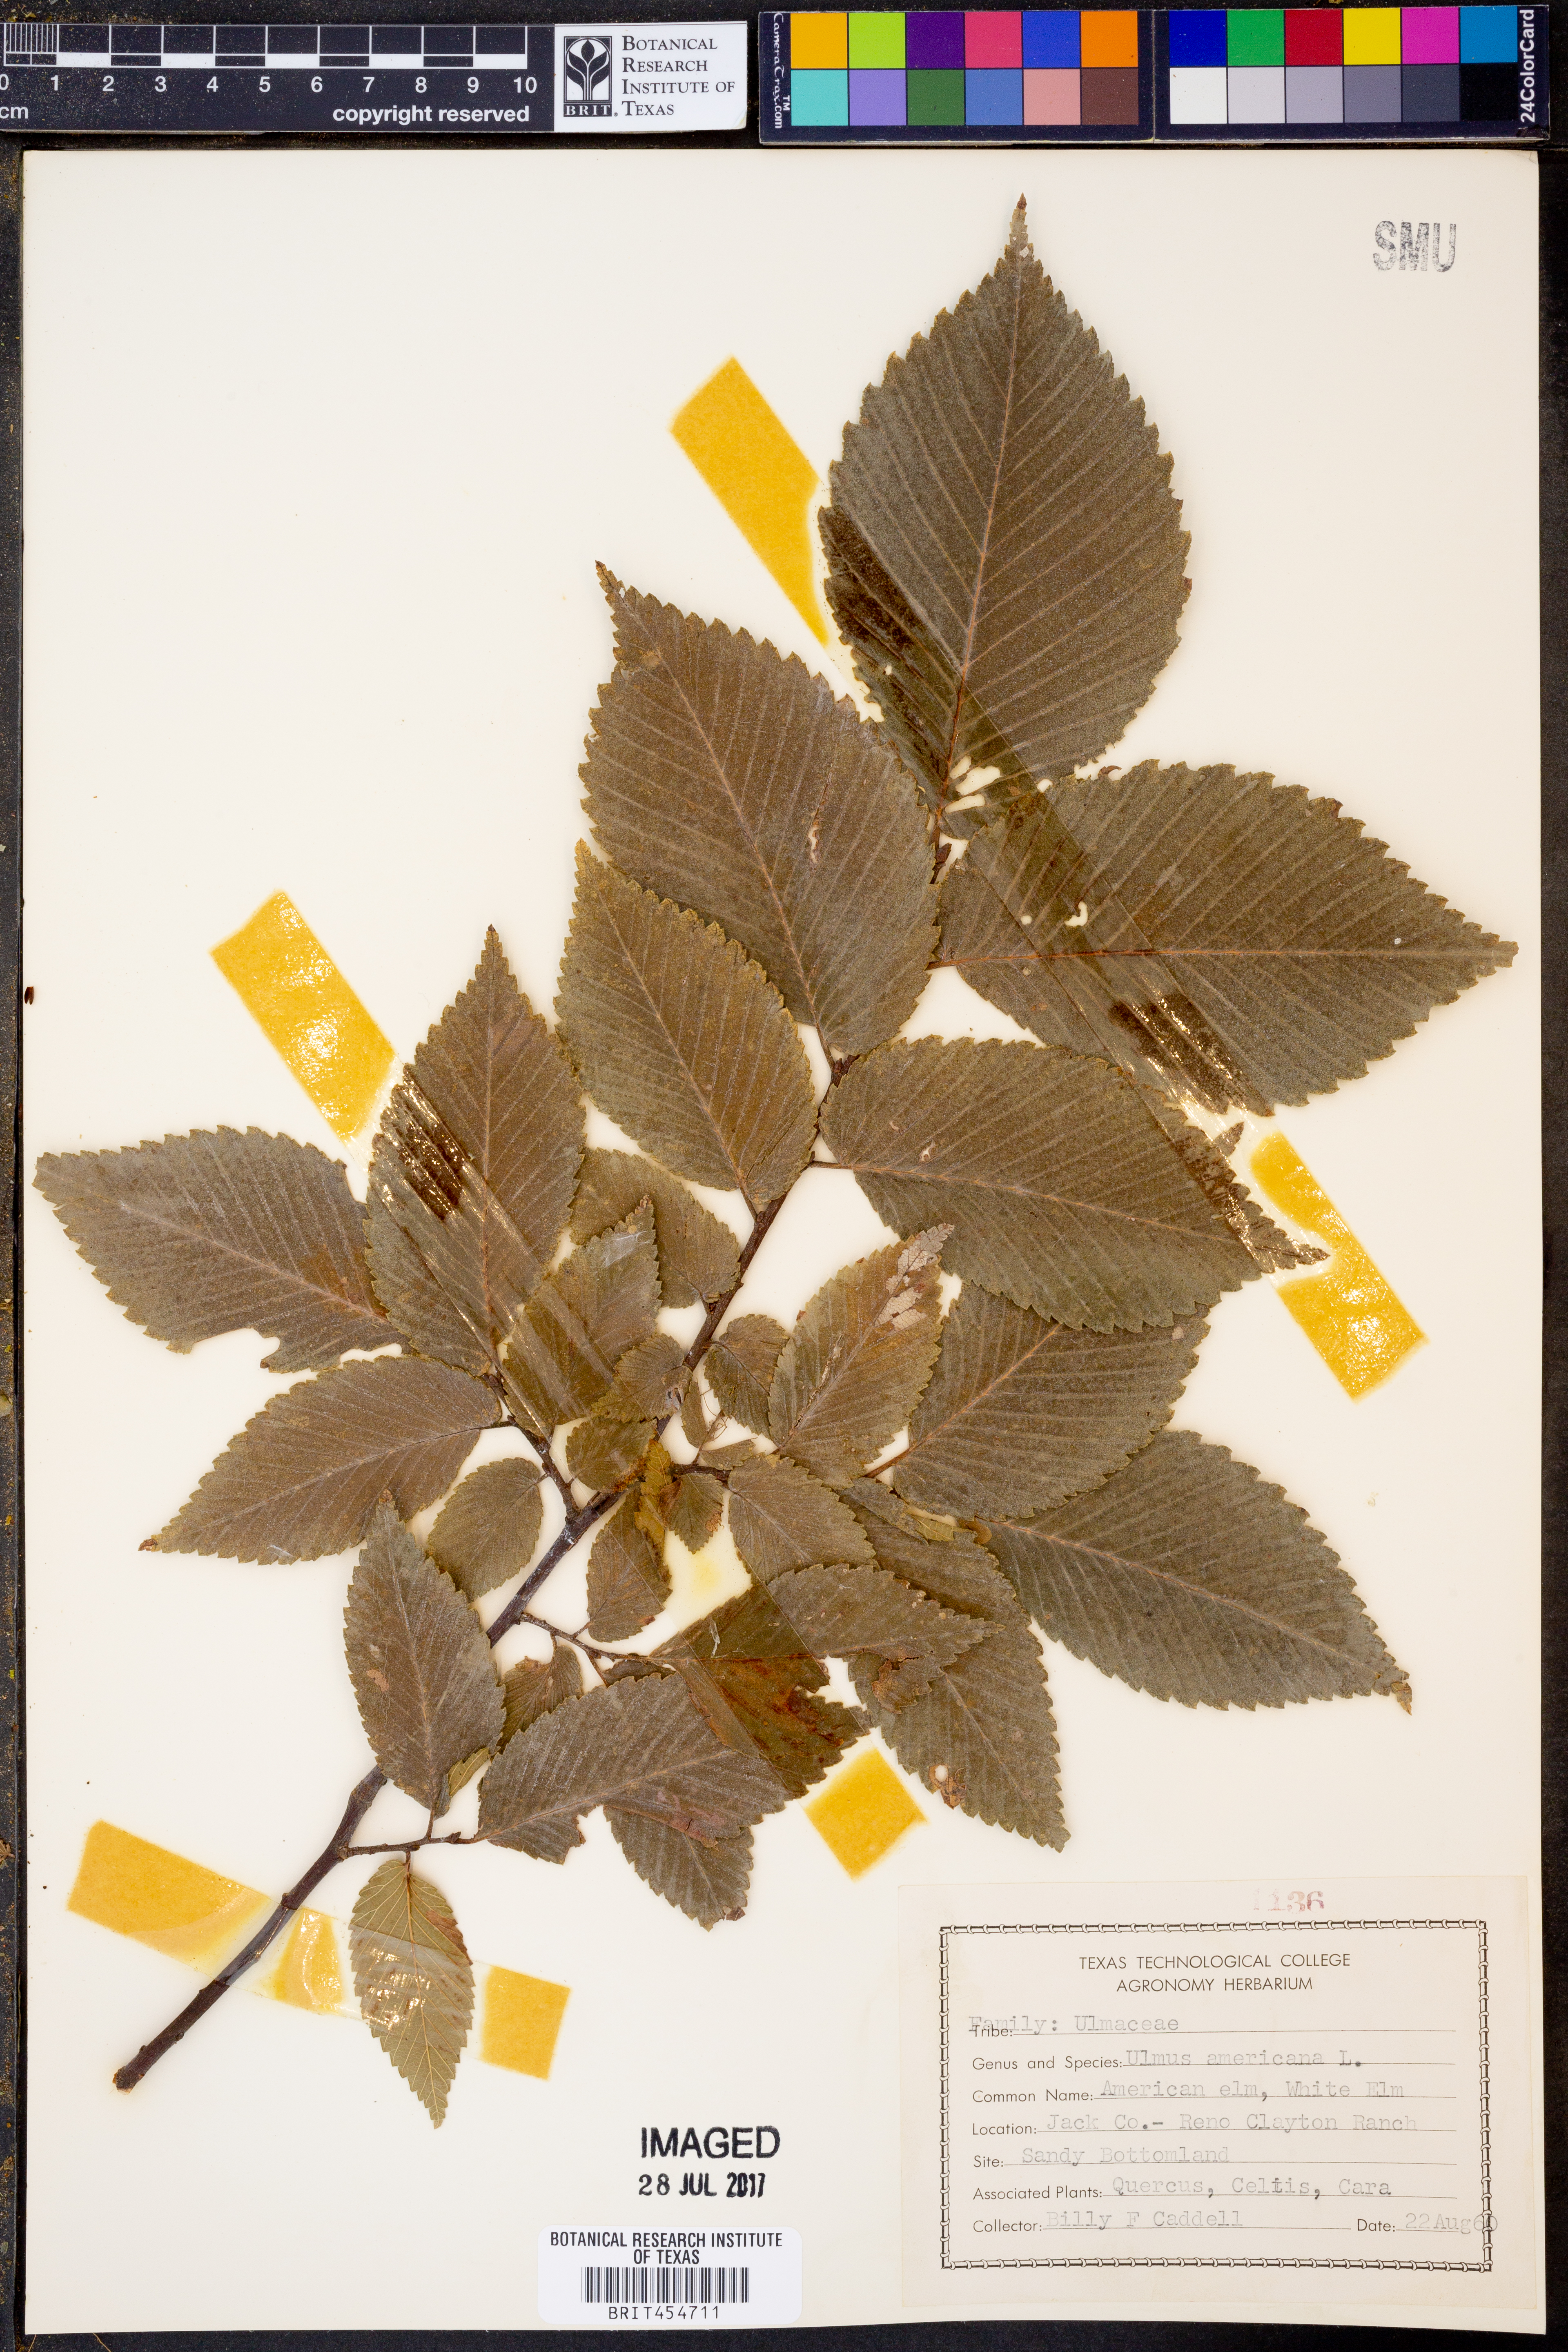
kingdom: Plantae
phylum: Tracheophyta
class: Magnoliopsida
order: Rosales
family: Ulmaceae
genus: Ulmus
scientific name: Ulmus americana
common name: American elm
